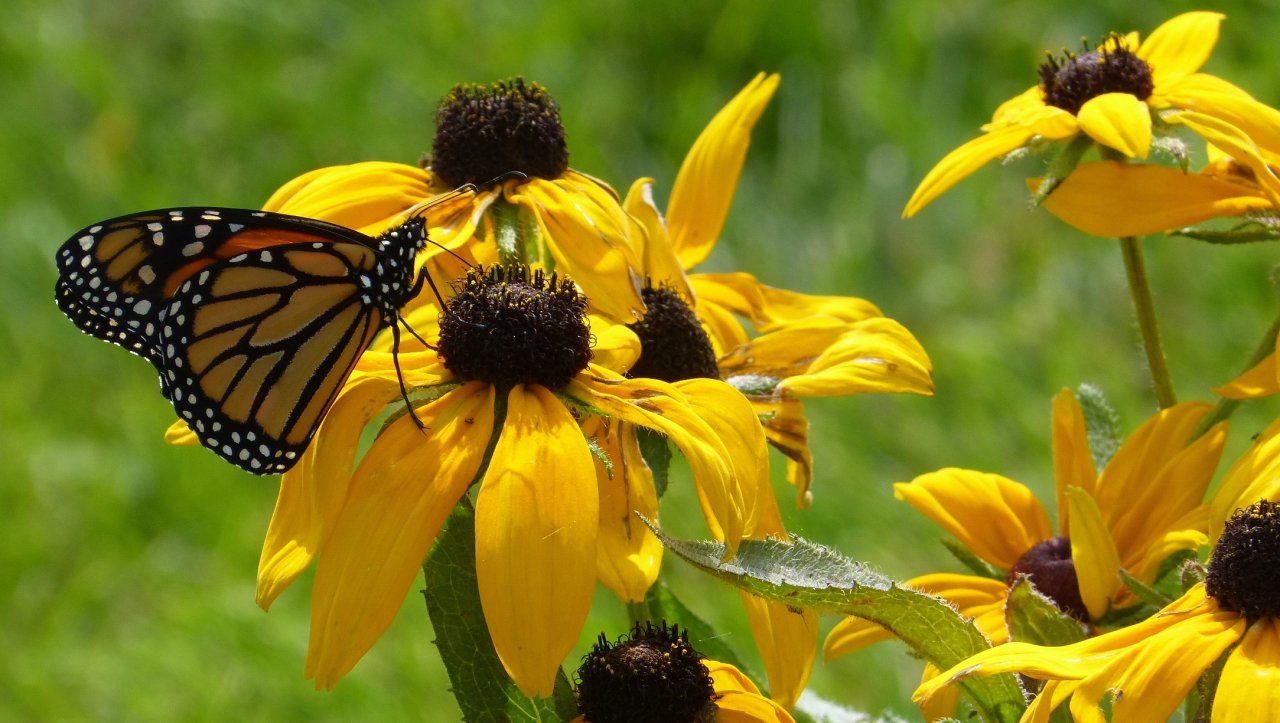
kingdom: Animalia
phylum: Arthropoda
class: Insecta
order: Lepidoptera
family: Nymphalidae
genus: Danaus
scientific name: Danaus plexippus
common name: Monarch
